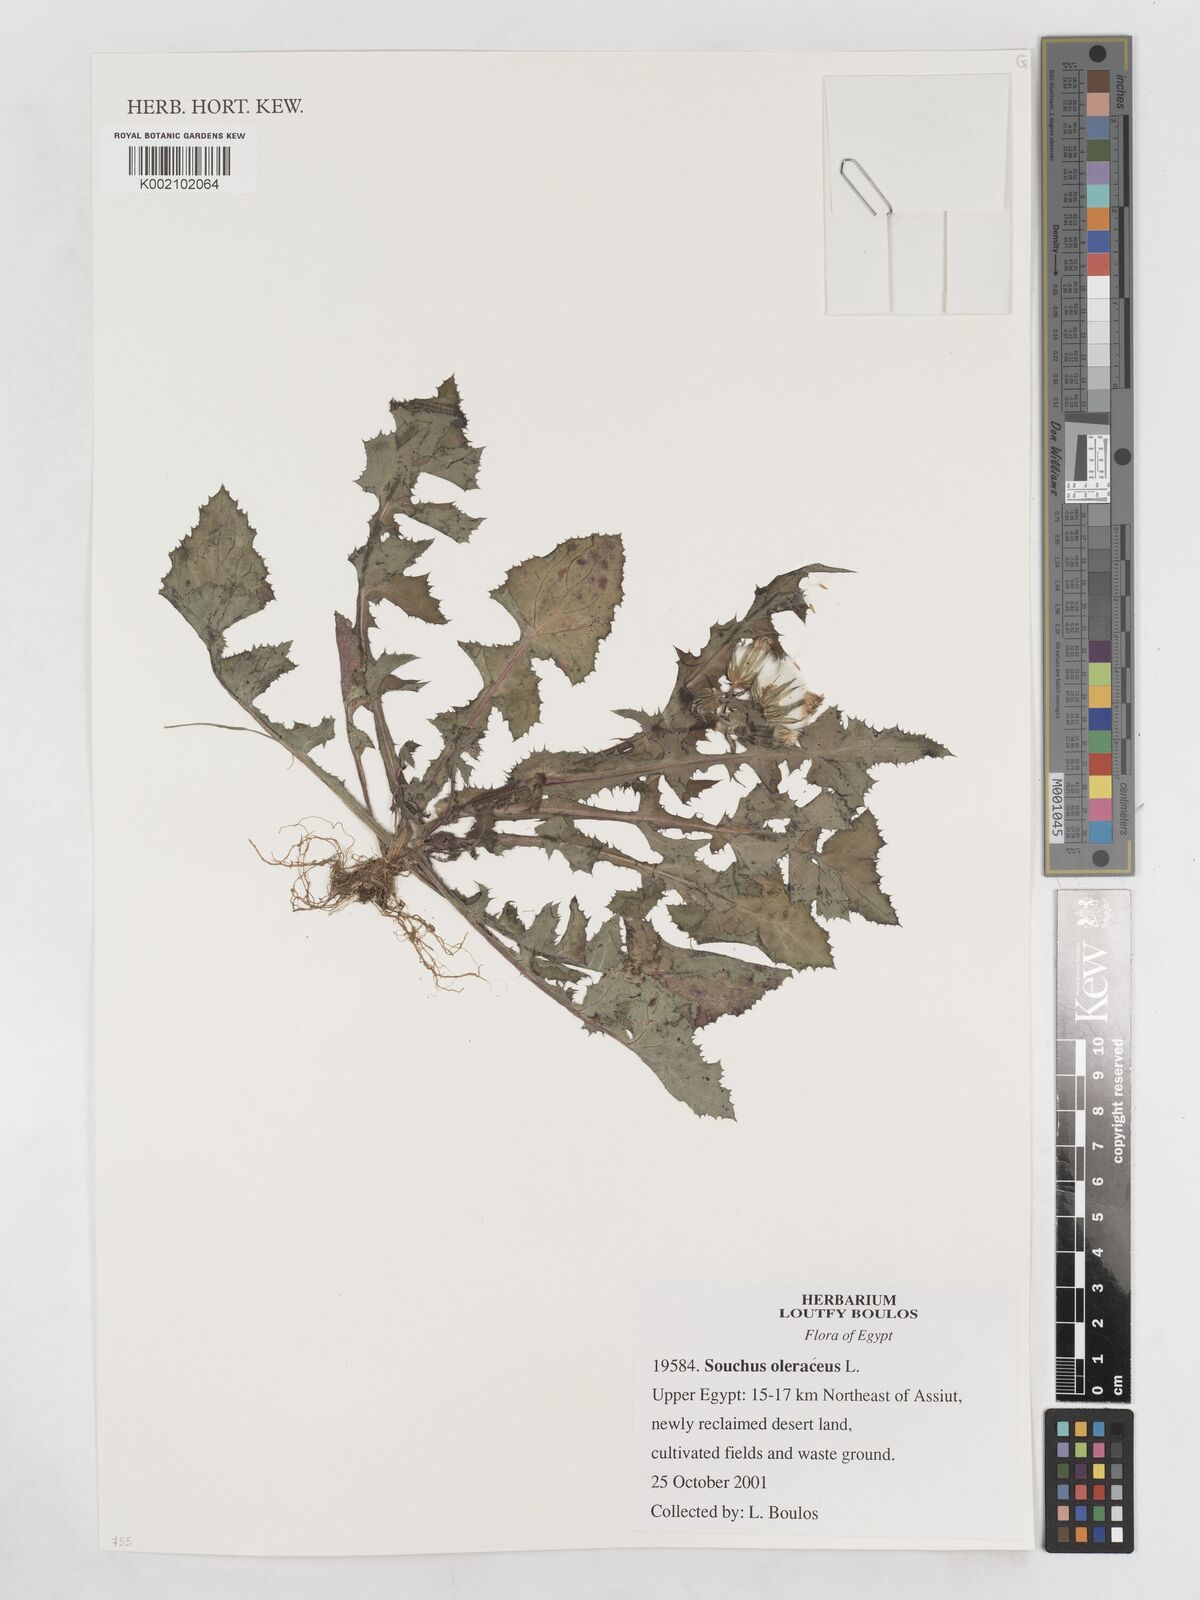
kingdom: Plantae
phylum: Tracheophyta
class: Magnoliopsida
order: Asterales
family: Asteraceae
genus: Sonchus
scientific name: Sonchus oleraceus
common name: Common sowthistle
